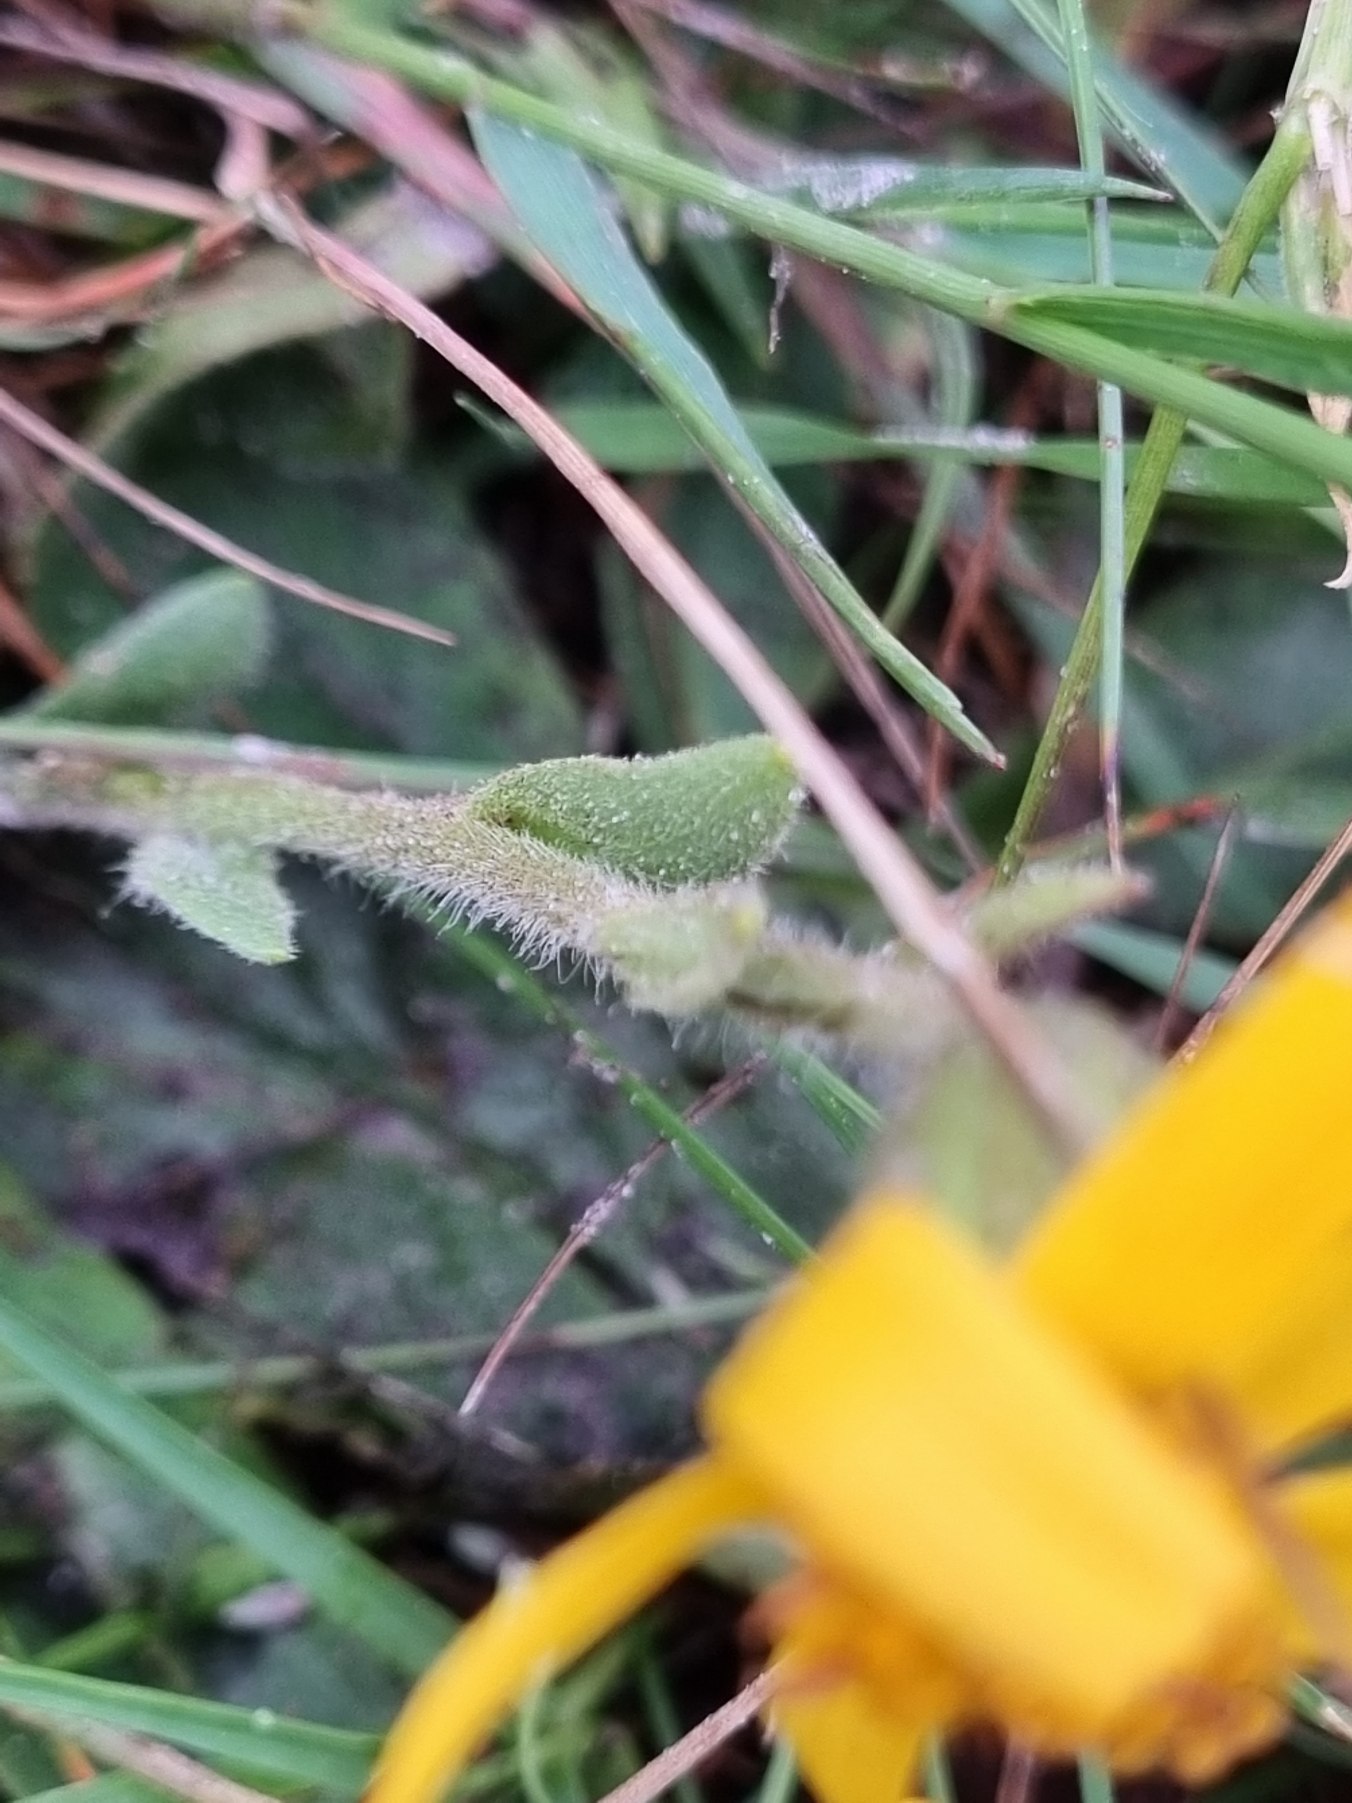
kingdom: Plantae
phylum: Tracheophyta
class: Magnoliopsida
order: Asterales
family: Asteraceae
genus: Arnica
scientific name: Arnica montana
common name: Guldblomme
